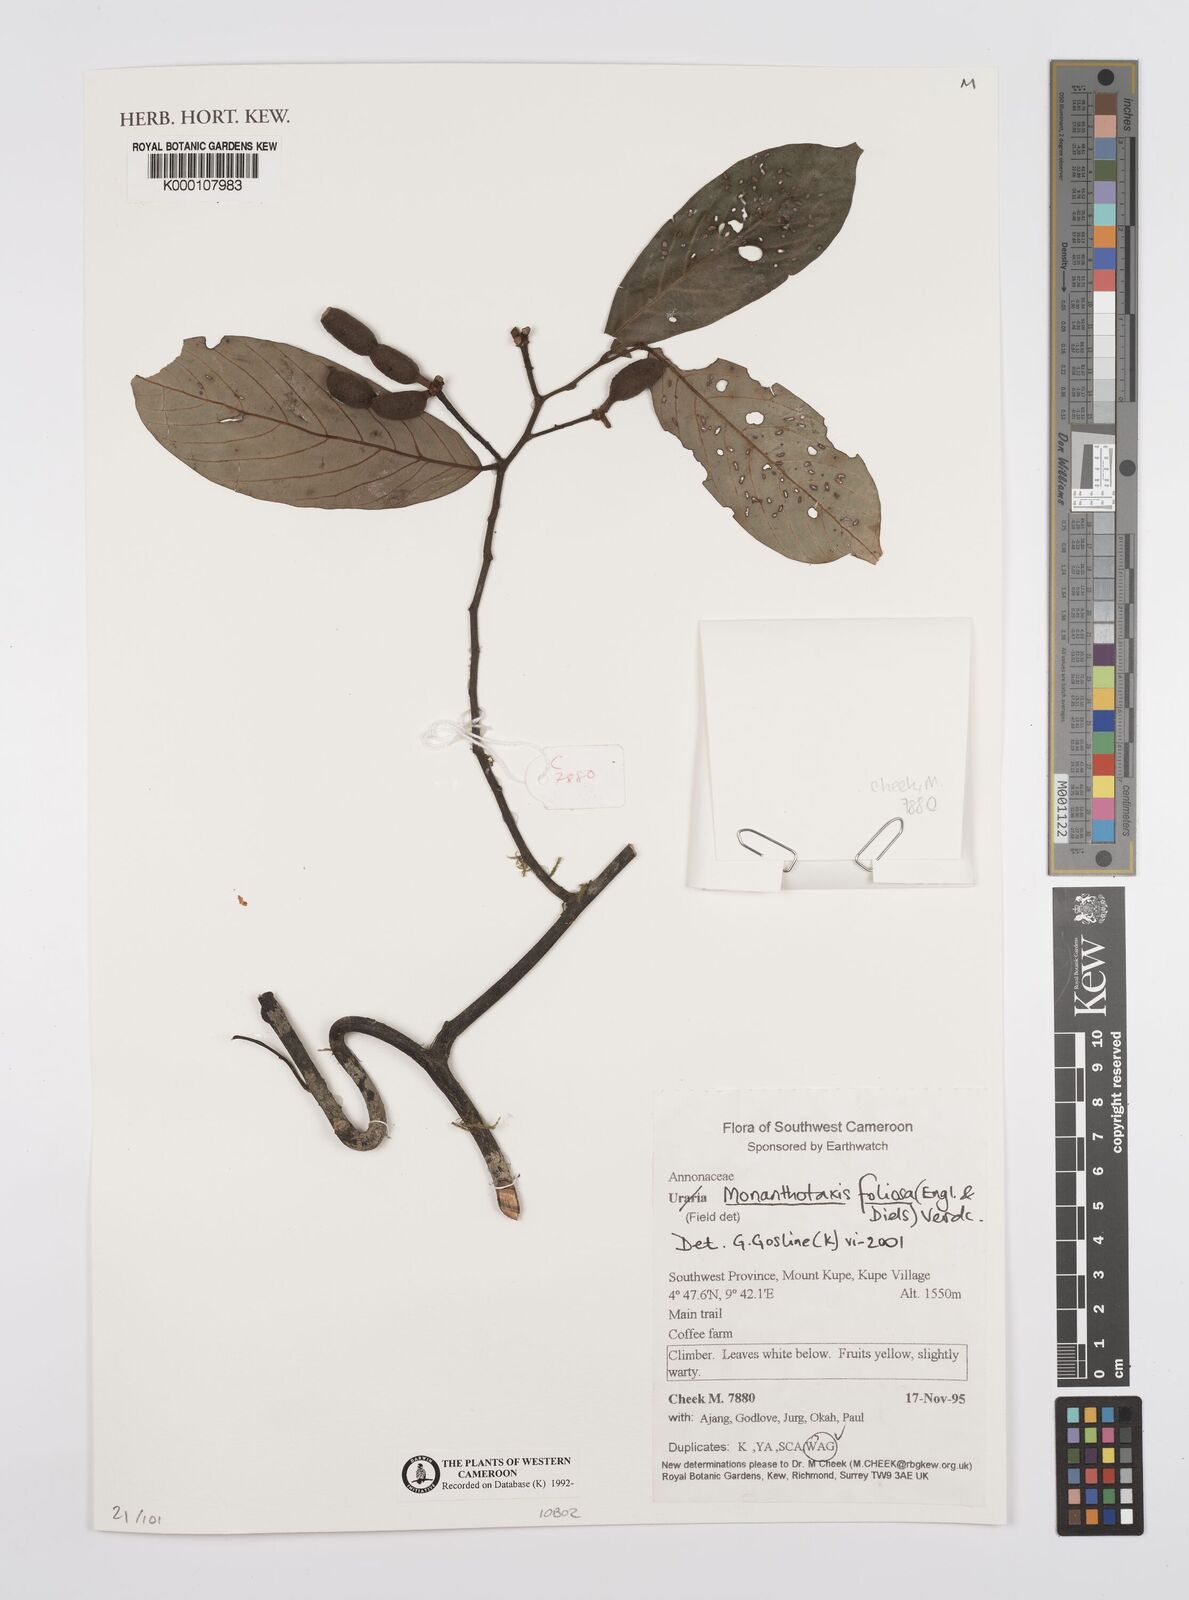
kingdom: Plantae
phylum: Tracheophyta
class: Magnoliopsida
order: Magnoliales
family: Annonaceae
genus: Monanthotaxis
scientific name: Monanthotaxis foliosa
